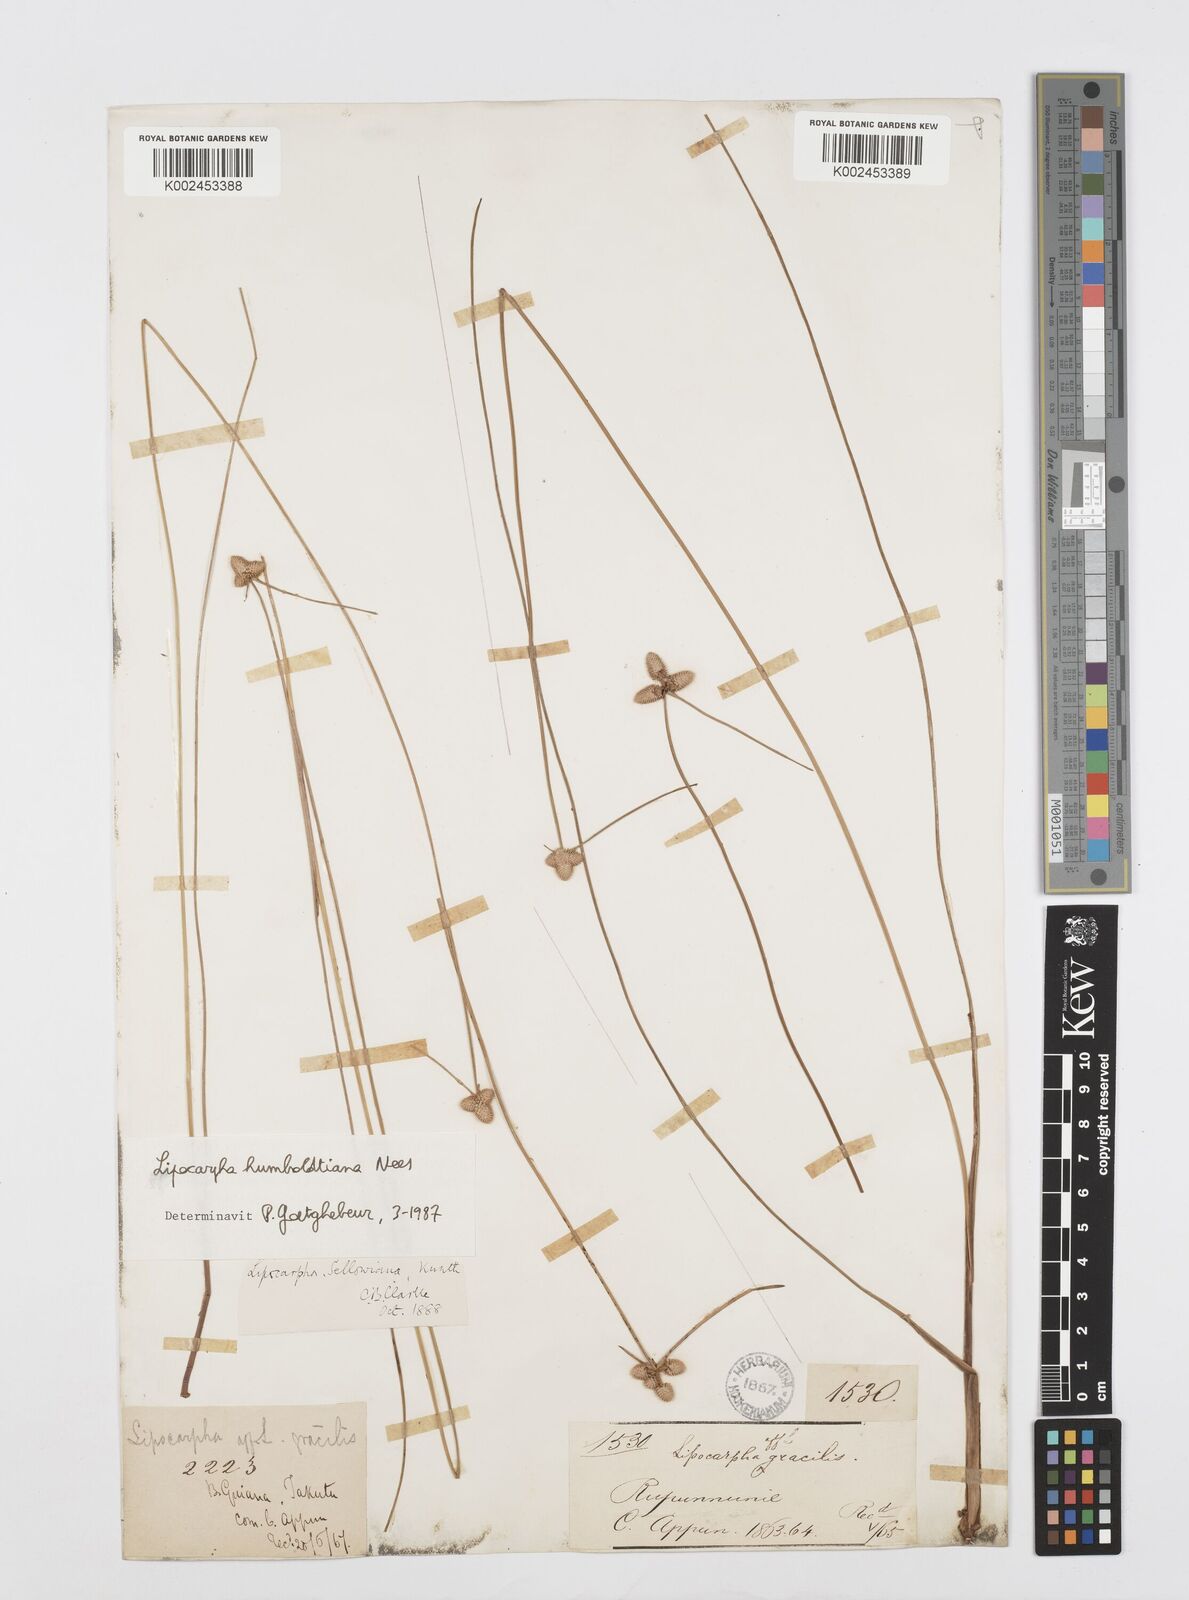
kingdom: Plantae
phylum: Tracheophyta
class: Liliopsida
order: Poales
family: Cyperaceae
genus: Cyperus
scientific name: Cyperus lanceolatus
